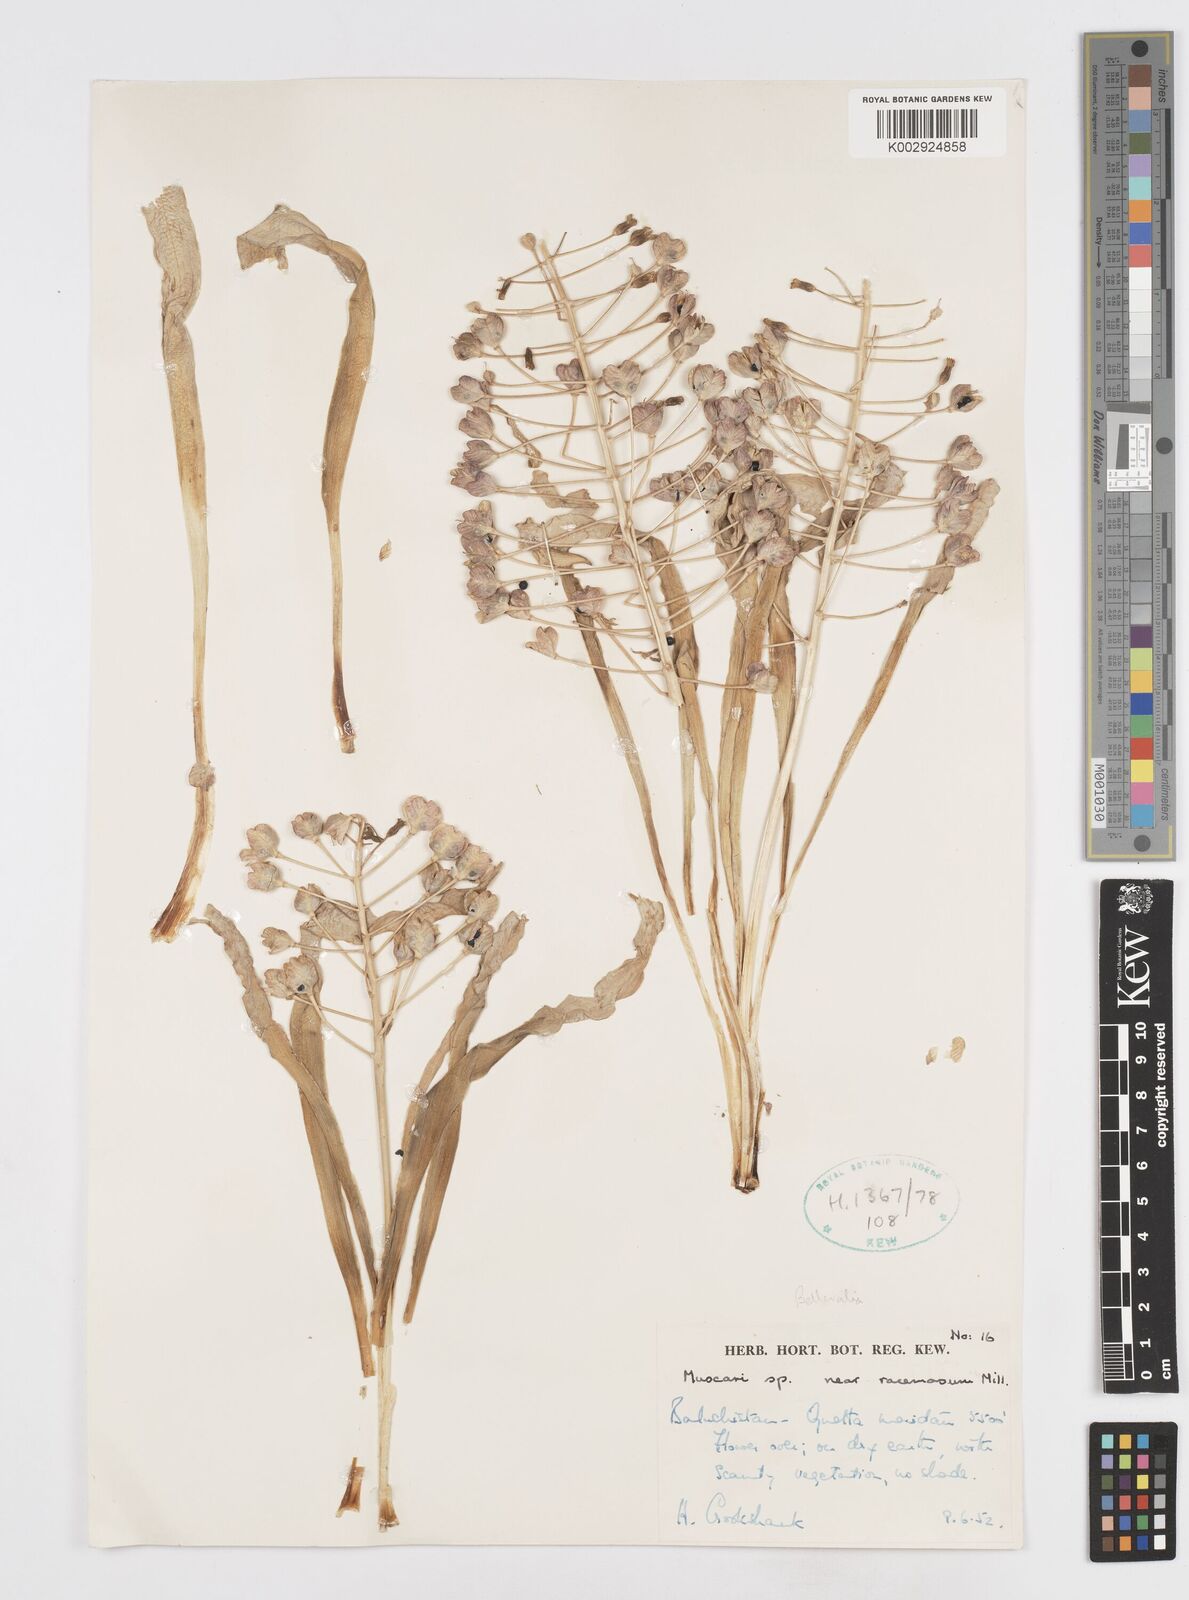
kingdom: Plantae
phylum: Tracheophyta
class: Liliopsida
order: Asparagales
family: Asparagaceae
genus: Bellevalia
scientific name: Bellevalia
